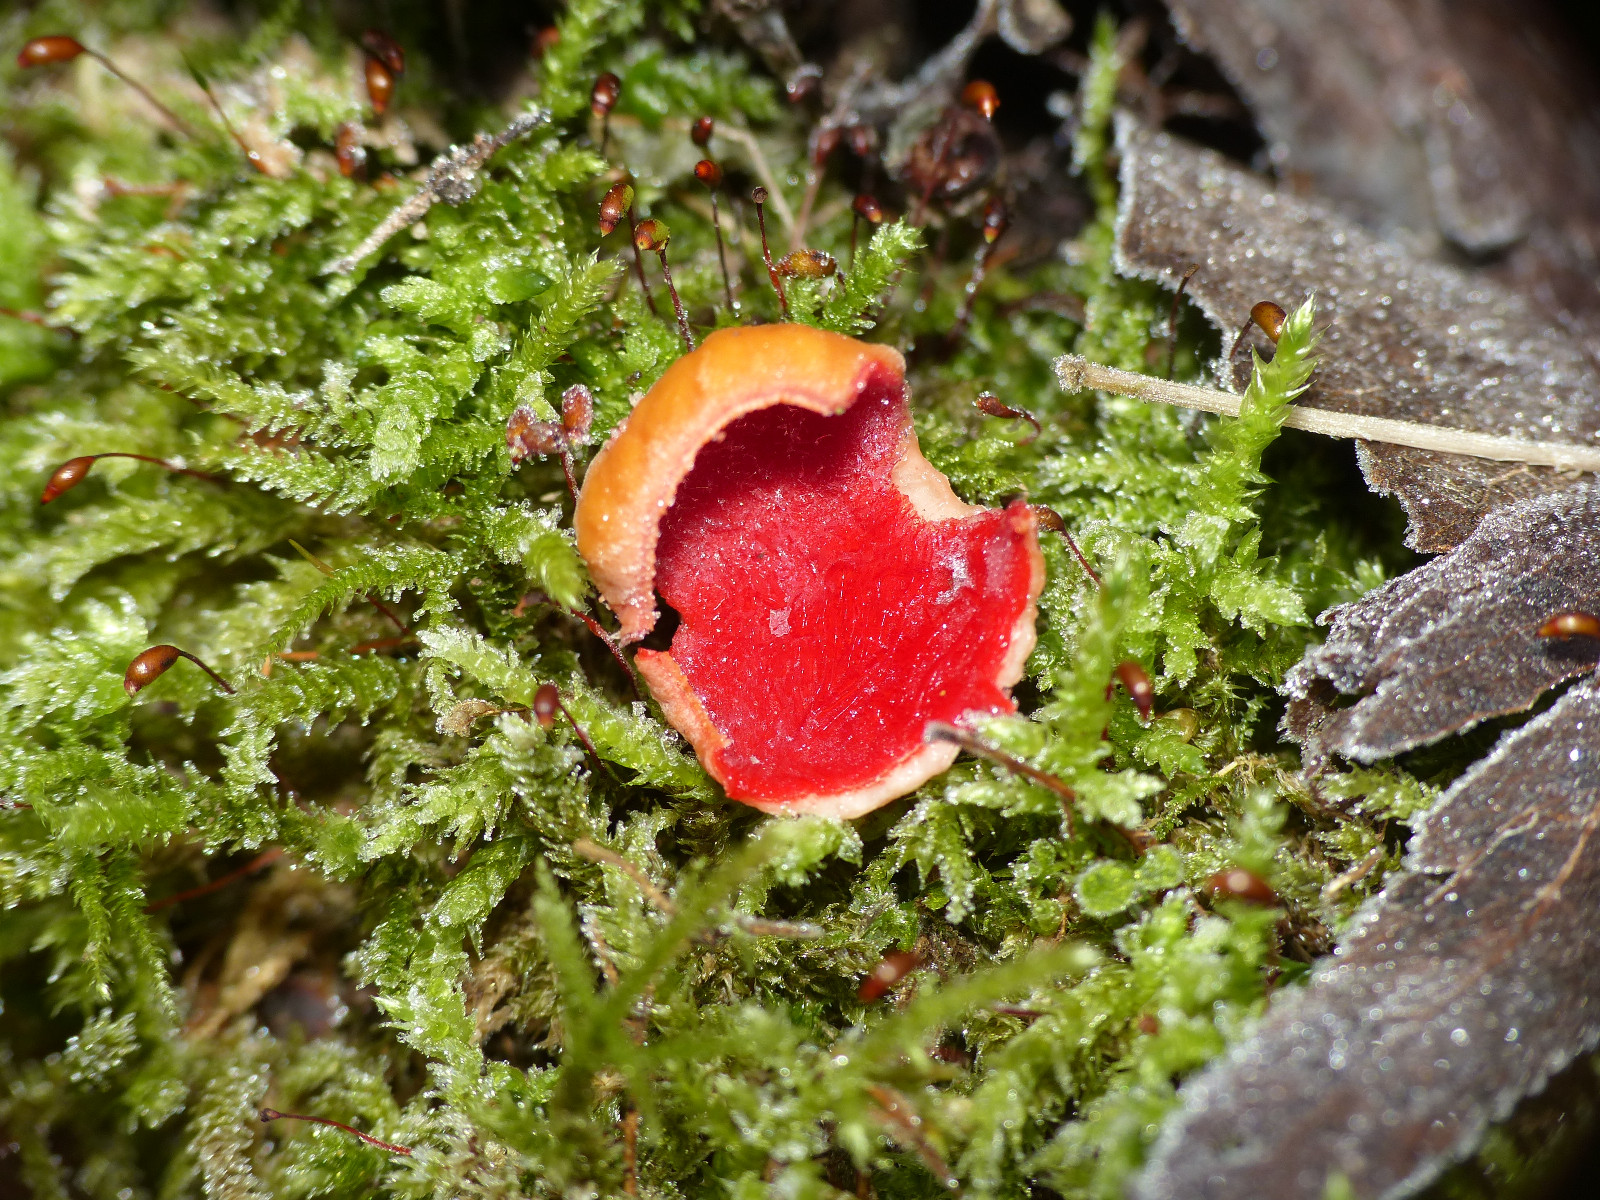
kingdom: Fungi
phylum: Ascomycota
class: Pezizomycetes
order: Pezizales
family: Sarcoscyphaceae
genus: Sarcoscypha
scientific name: Sarcoscypha austriaca
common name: krølhåret pragtbæger
